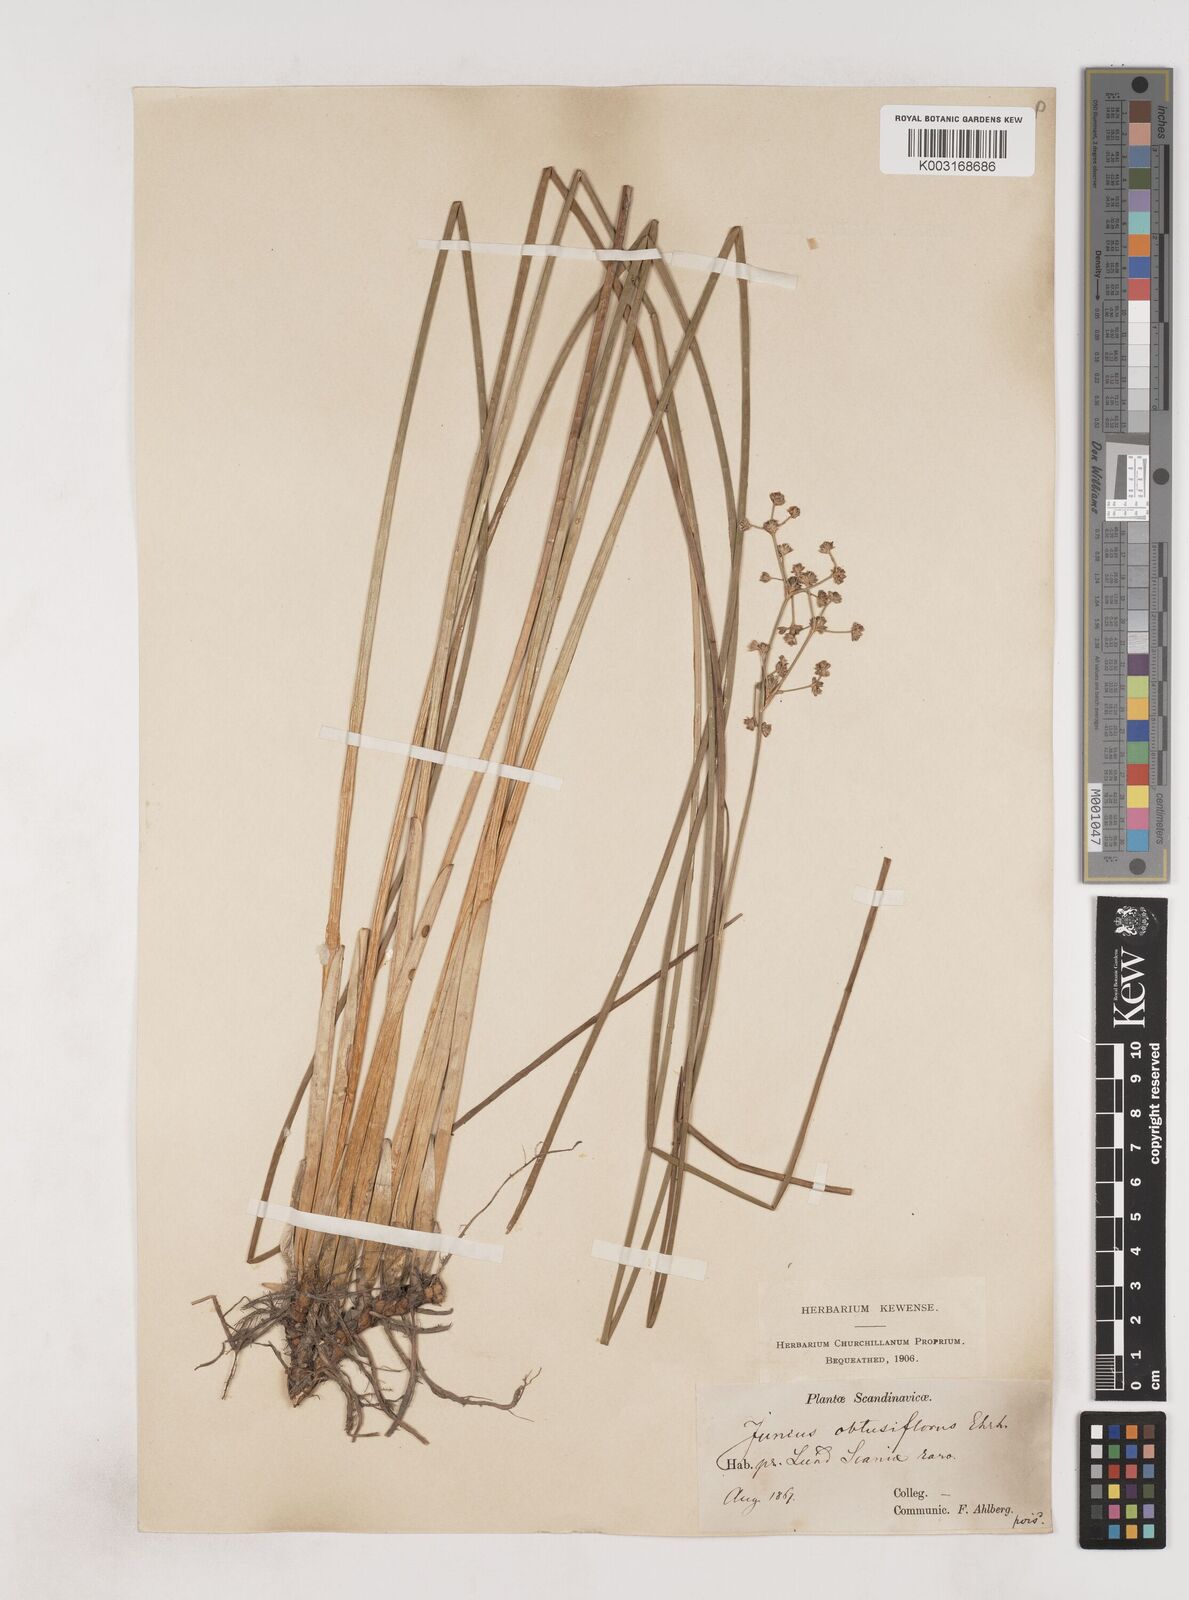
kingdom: Plantae
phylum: Tracheophyta
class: Liliopsida
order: Poales
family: Juncaceae
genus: Juncus
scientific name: Juncus subnodulosus
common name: Blunt-flowered rush
